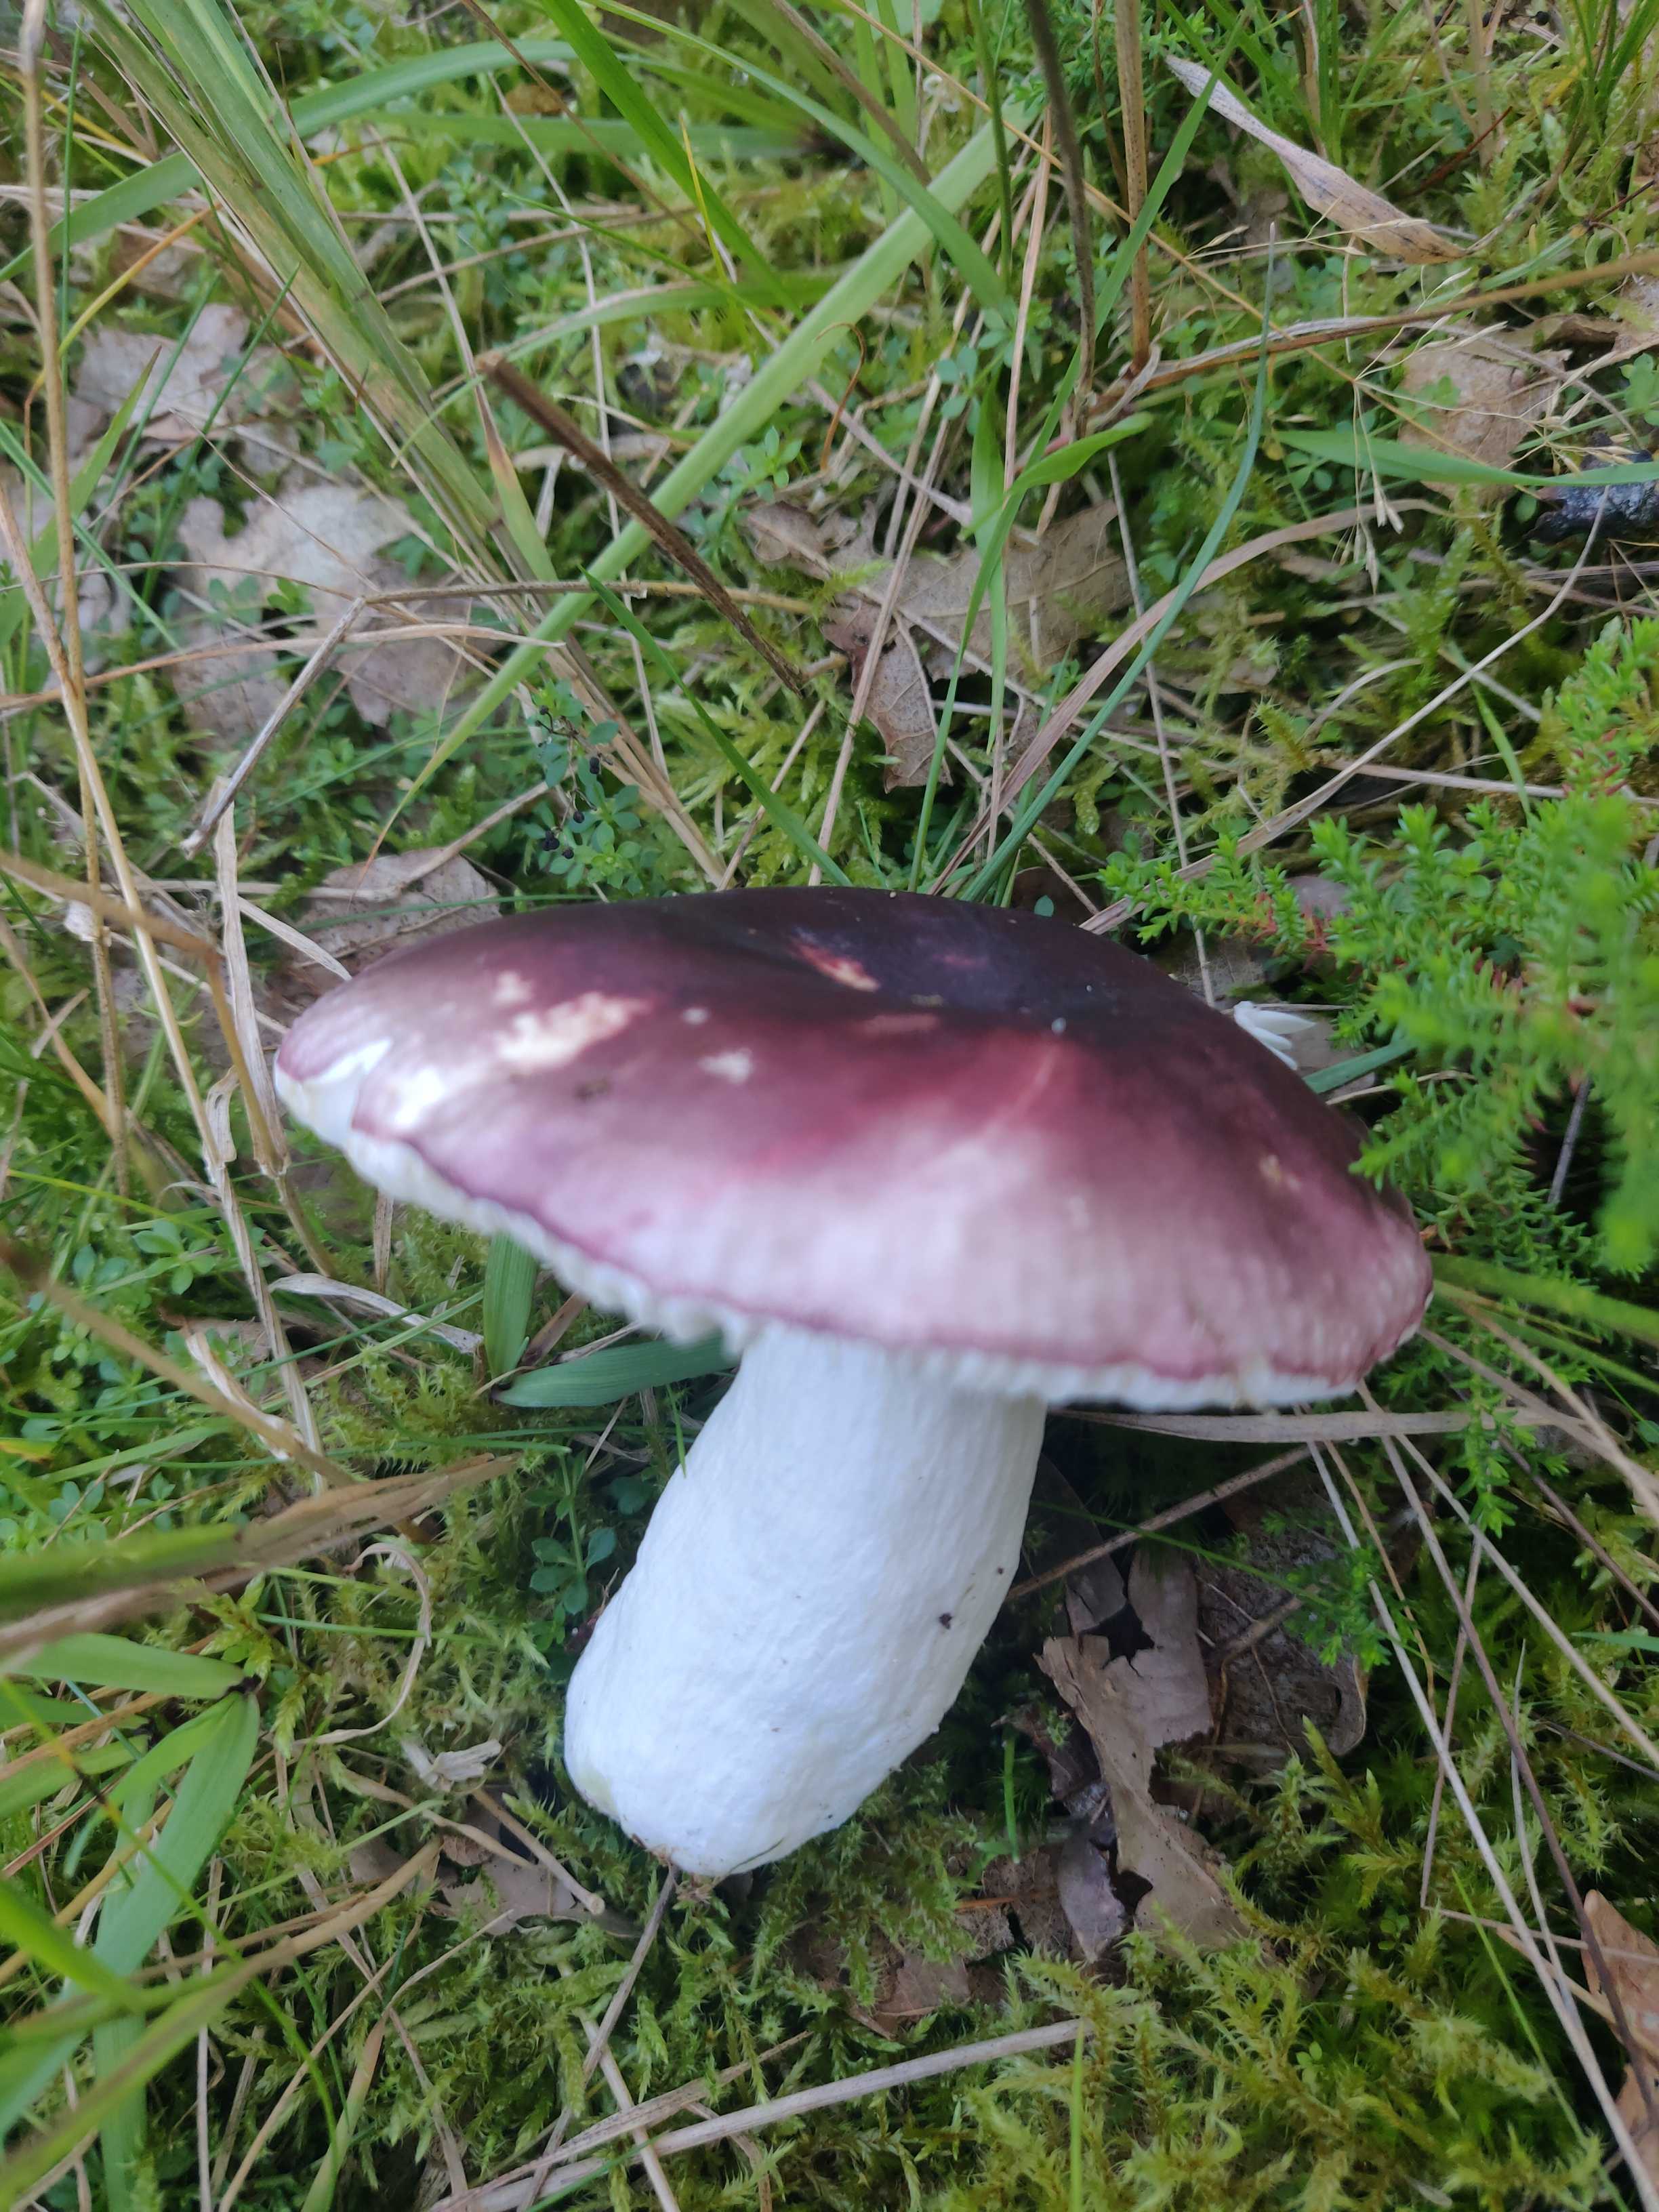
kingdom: Fungi
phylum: Basidiomycota
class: Agaricomycetes
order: Russulales
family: Russulaceae
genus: Russula
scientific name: Russula
